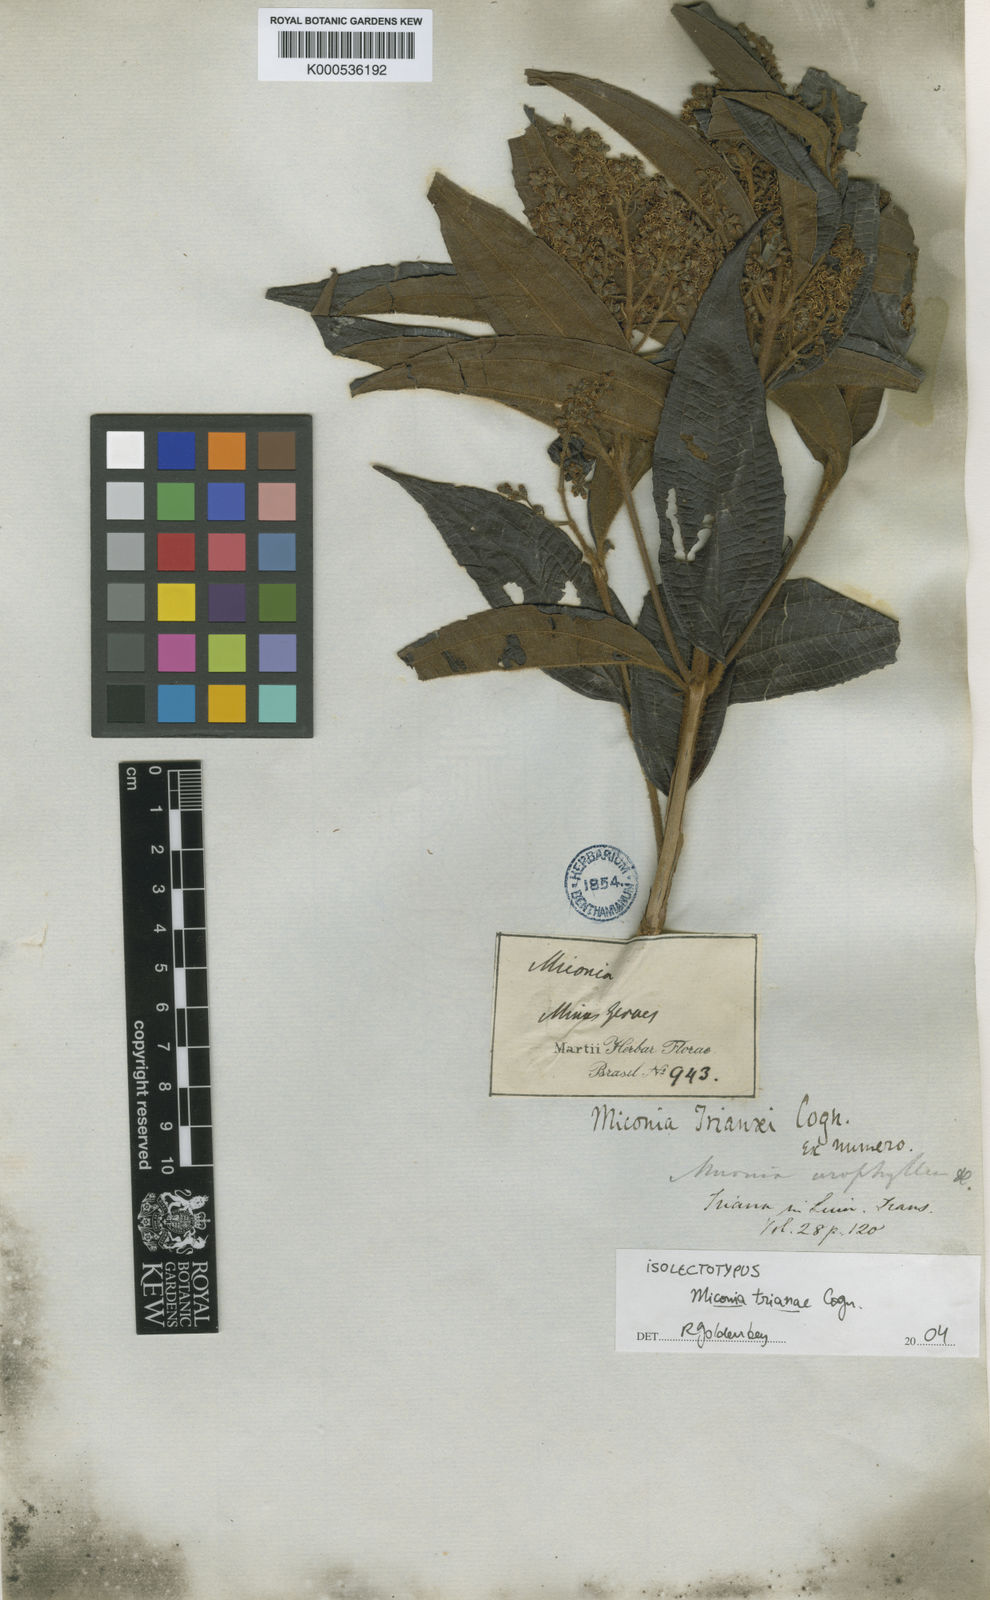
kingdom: Plantae
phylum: Tracheophyta
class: Magnoliopsida
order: Myrtales
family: Melastomataceae
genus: Miconia
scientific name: Miconia
